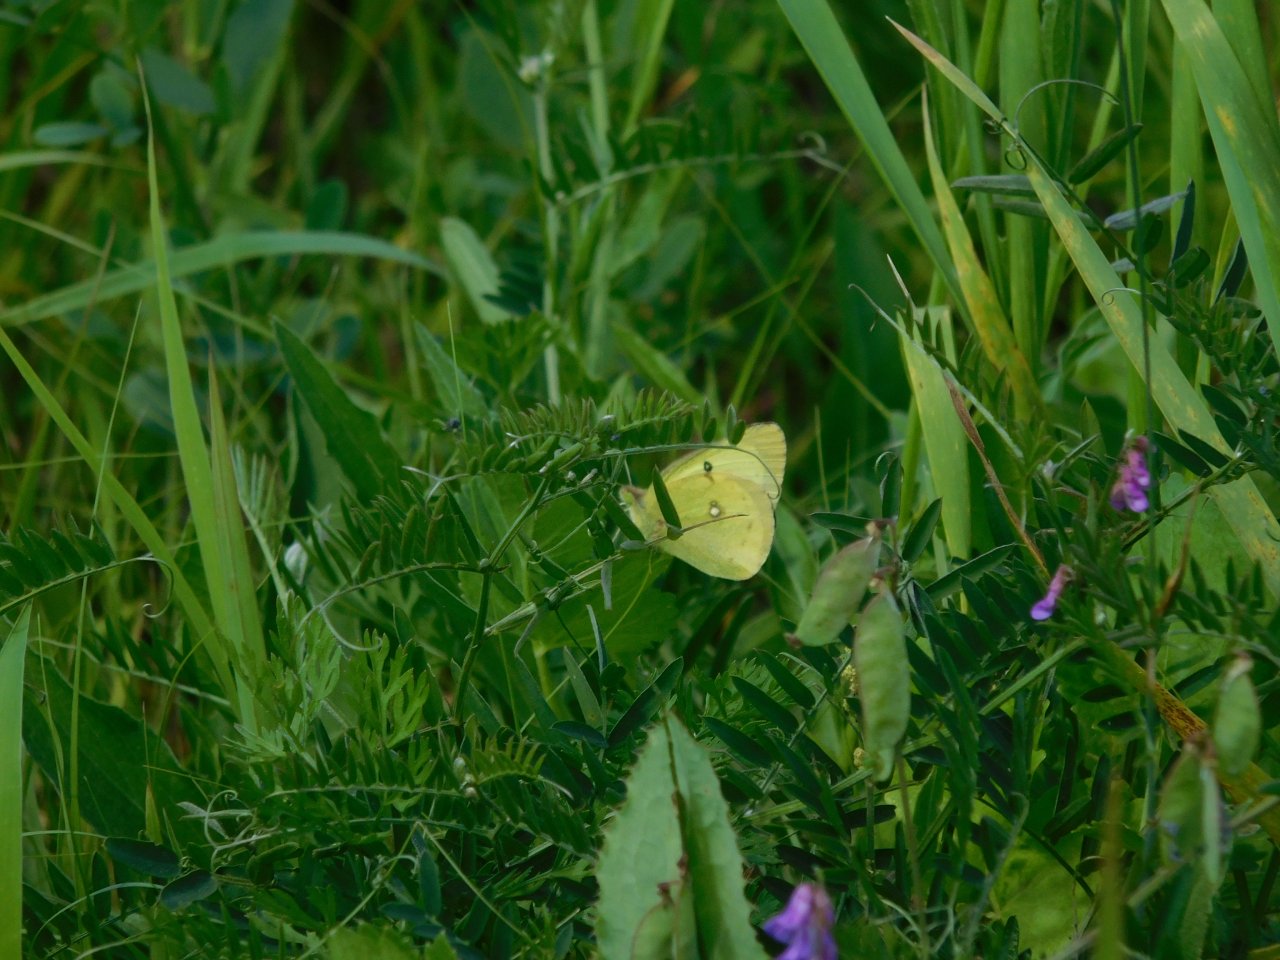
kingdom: Animalia
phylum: Arthropoda
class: Insecta
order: Lepidoptera
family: Pieridae
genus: Colias
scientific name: Colias philodice
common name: Clouded Sulphur
